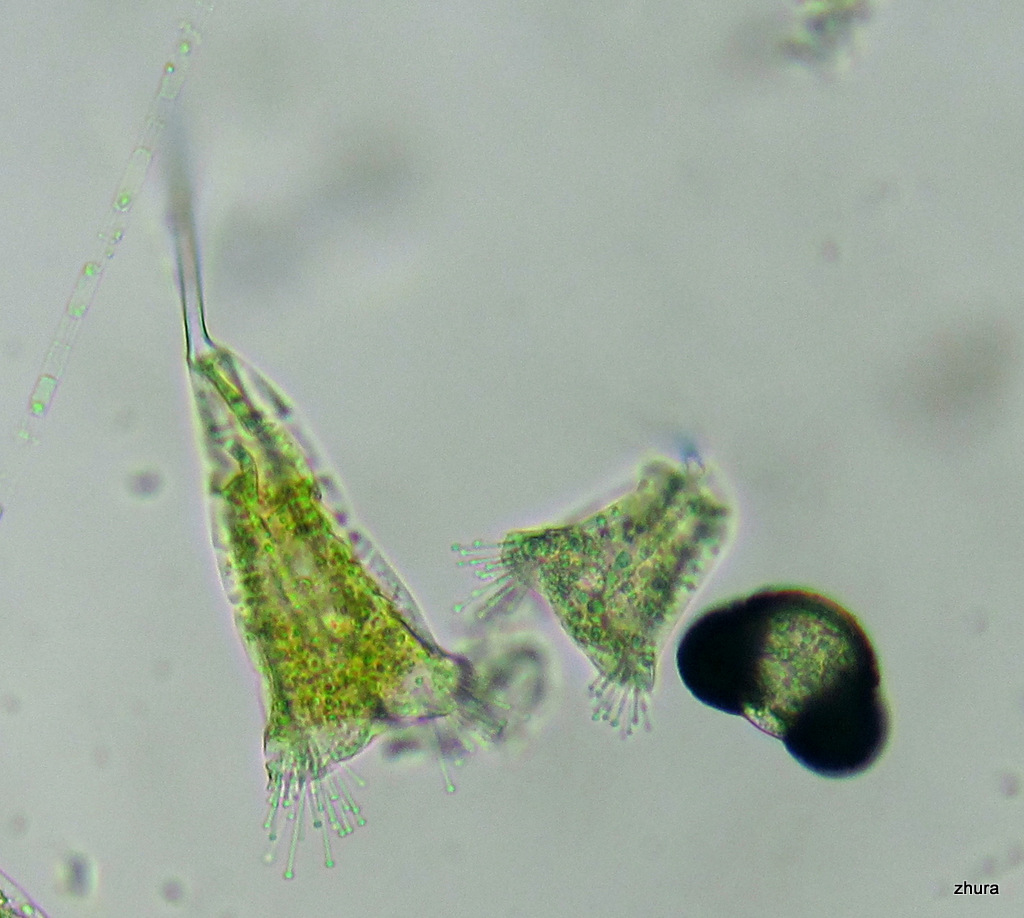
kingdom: Chromista
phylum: Ciliophora
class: Kinetofragminophora
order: Suctorida
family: Acinetidae
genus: Acineta
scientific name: Acineta tuberosa
